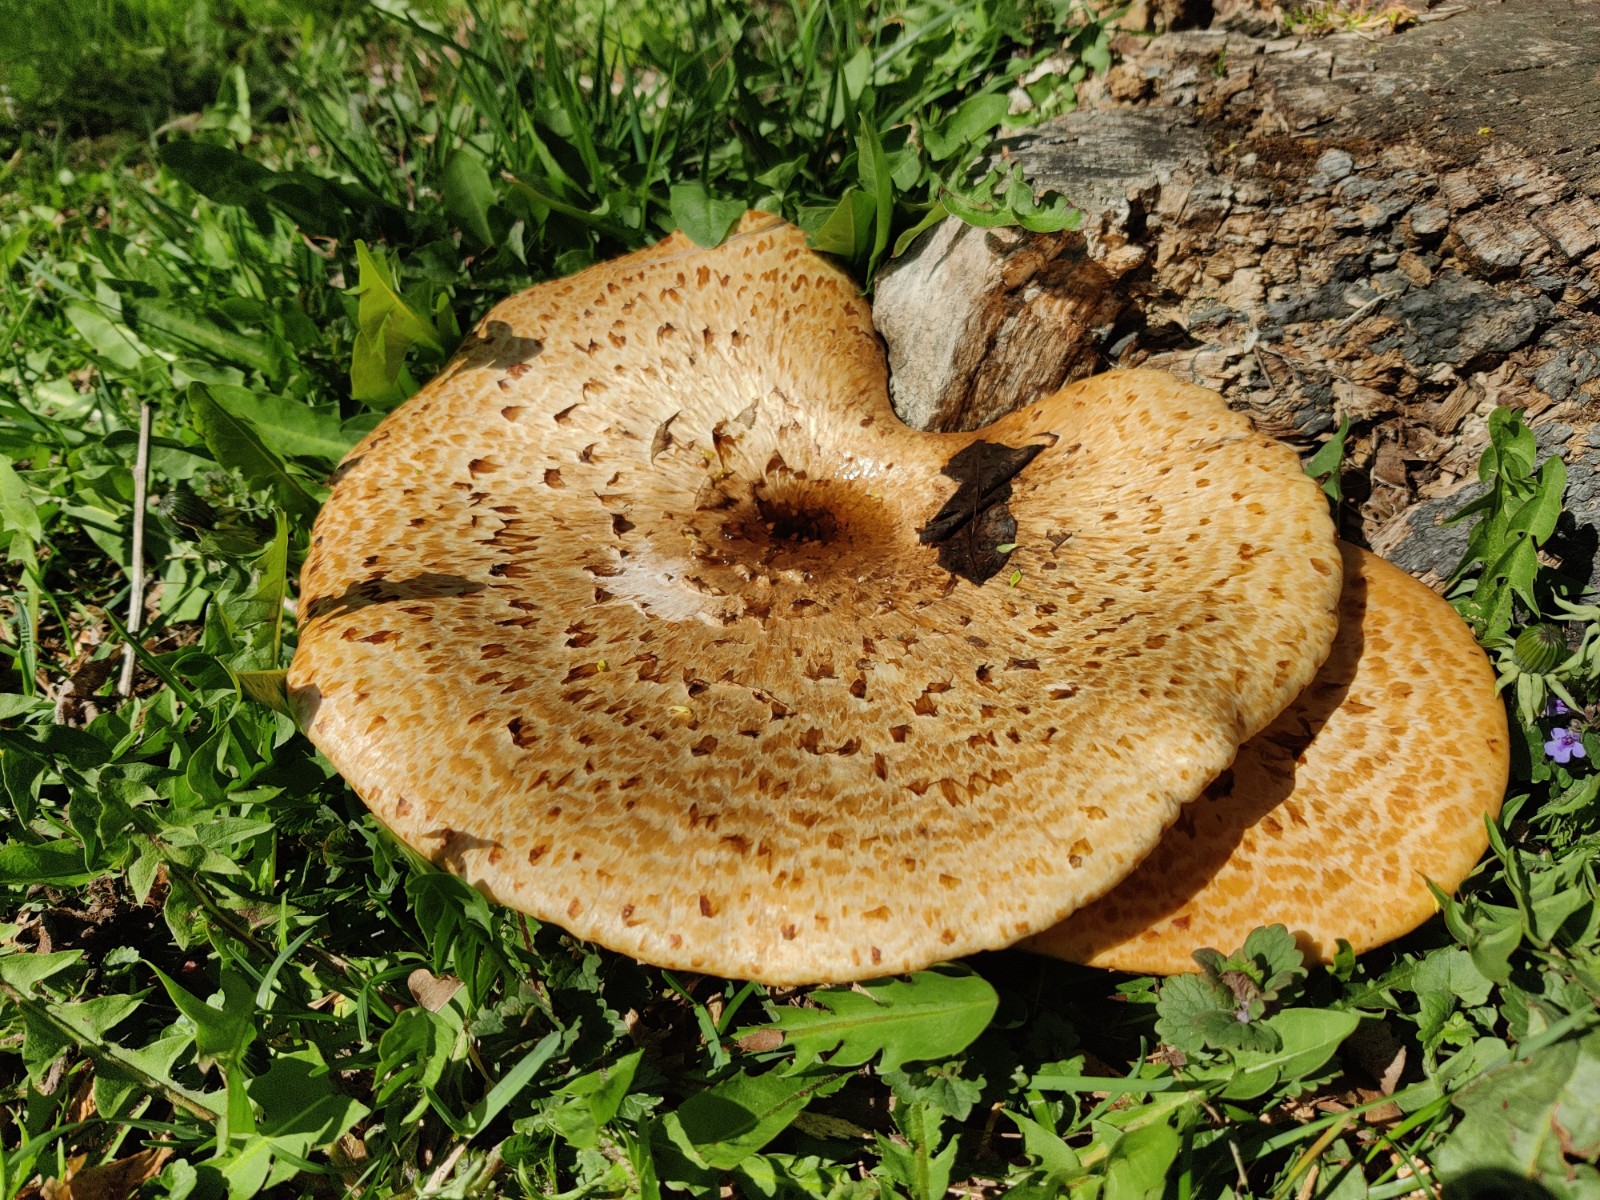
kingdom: Fungi
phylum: Basidiomycota
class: Agaricomycetes
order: Polyporales
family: Polyporaceae
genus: Cerioporus
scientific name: Cerioporus squamosus
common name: skællet stilkporesvamp
